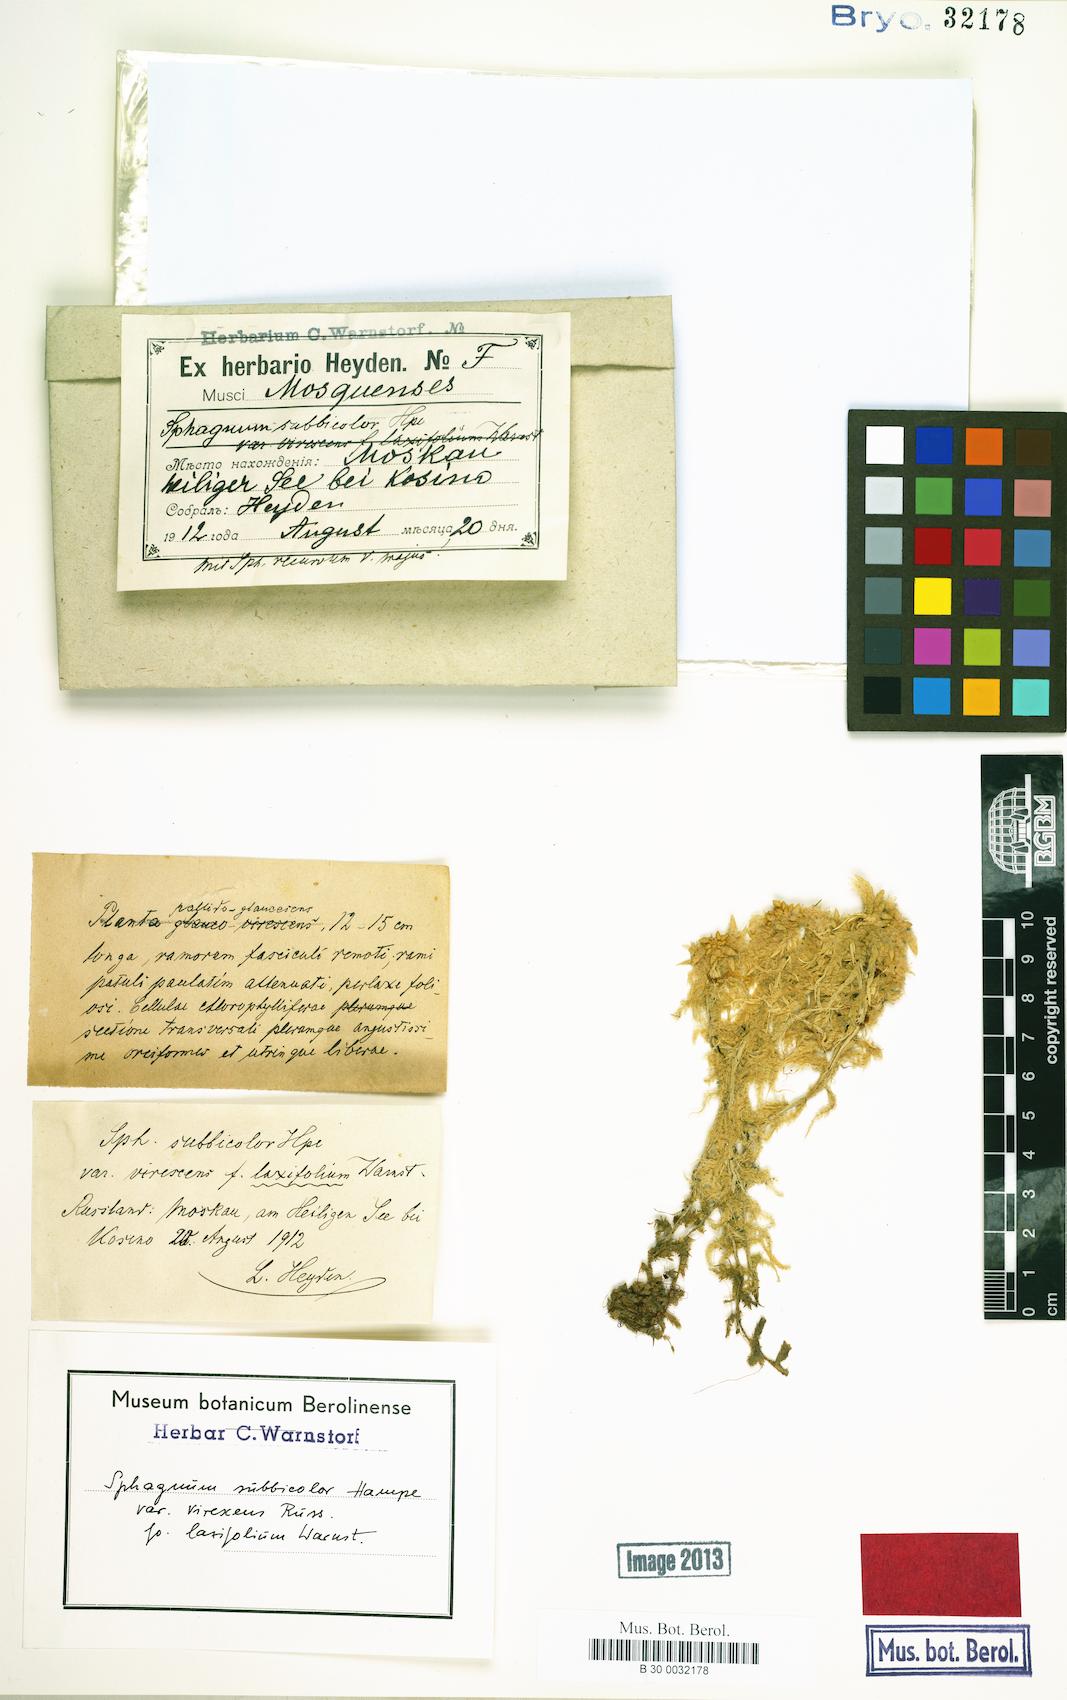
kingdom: Plantae
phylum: Bryophyta
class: Sphagnopsida
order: Sphagnales
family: Sphagnaceae
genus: Sphagnum
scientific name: Sphagnum centrale
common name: Central peat moss
